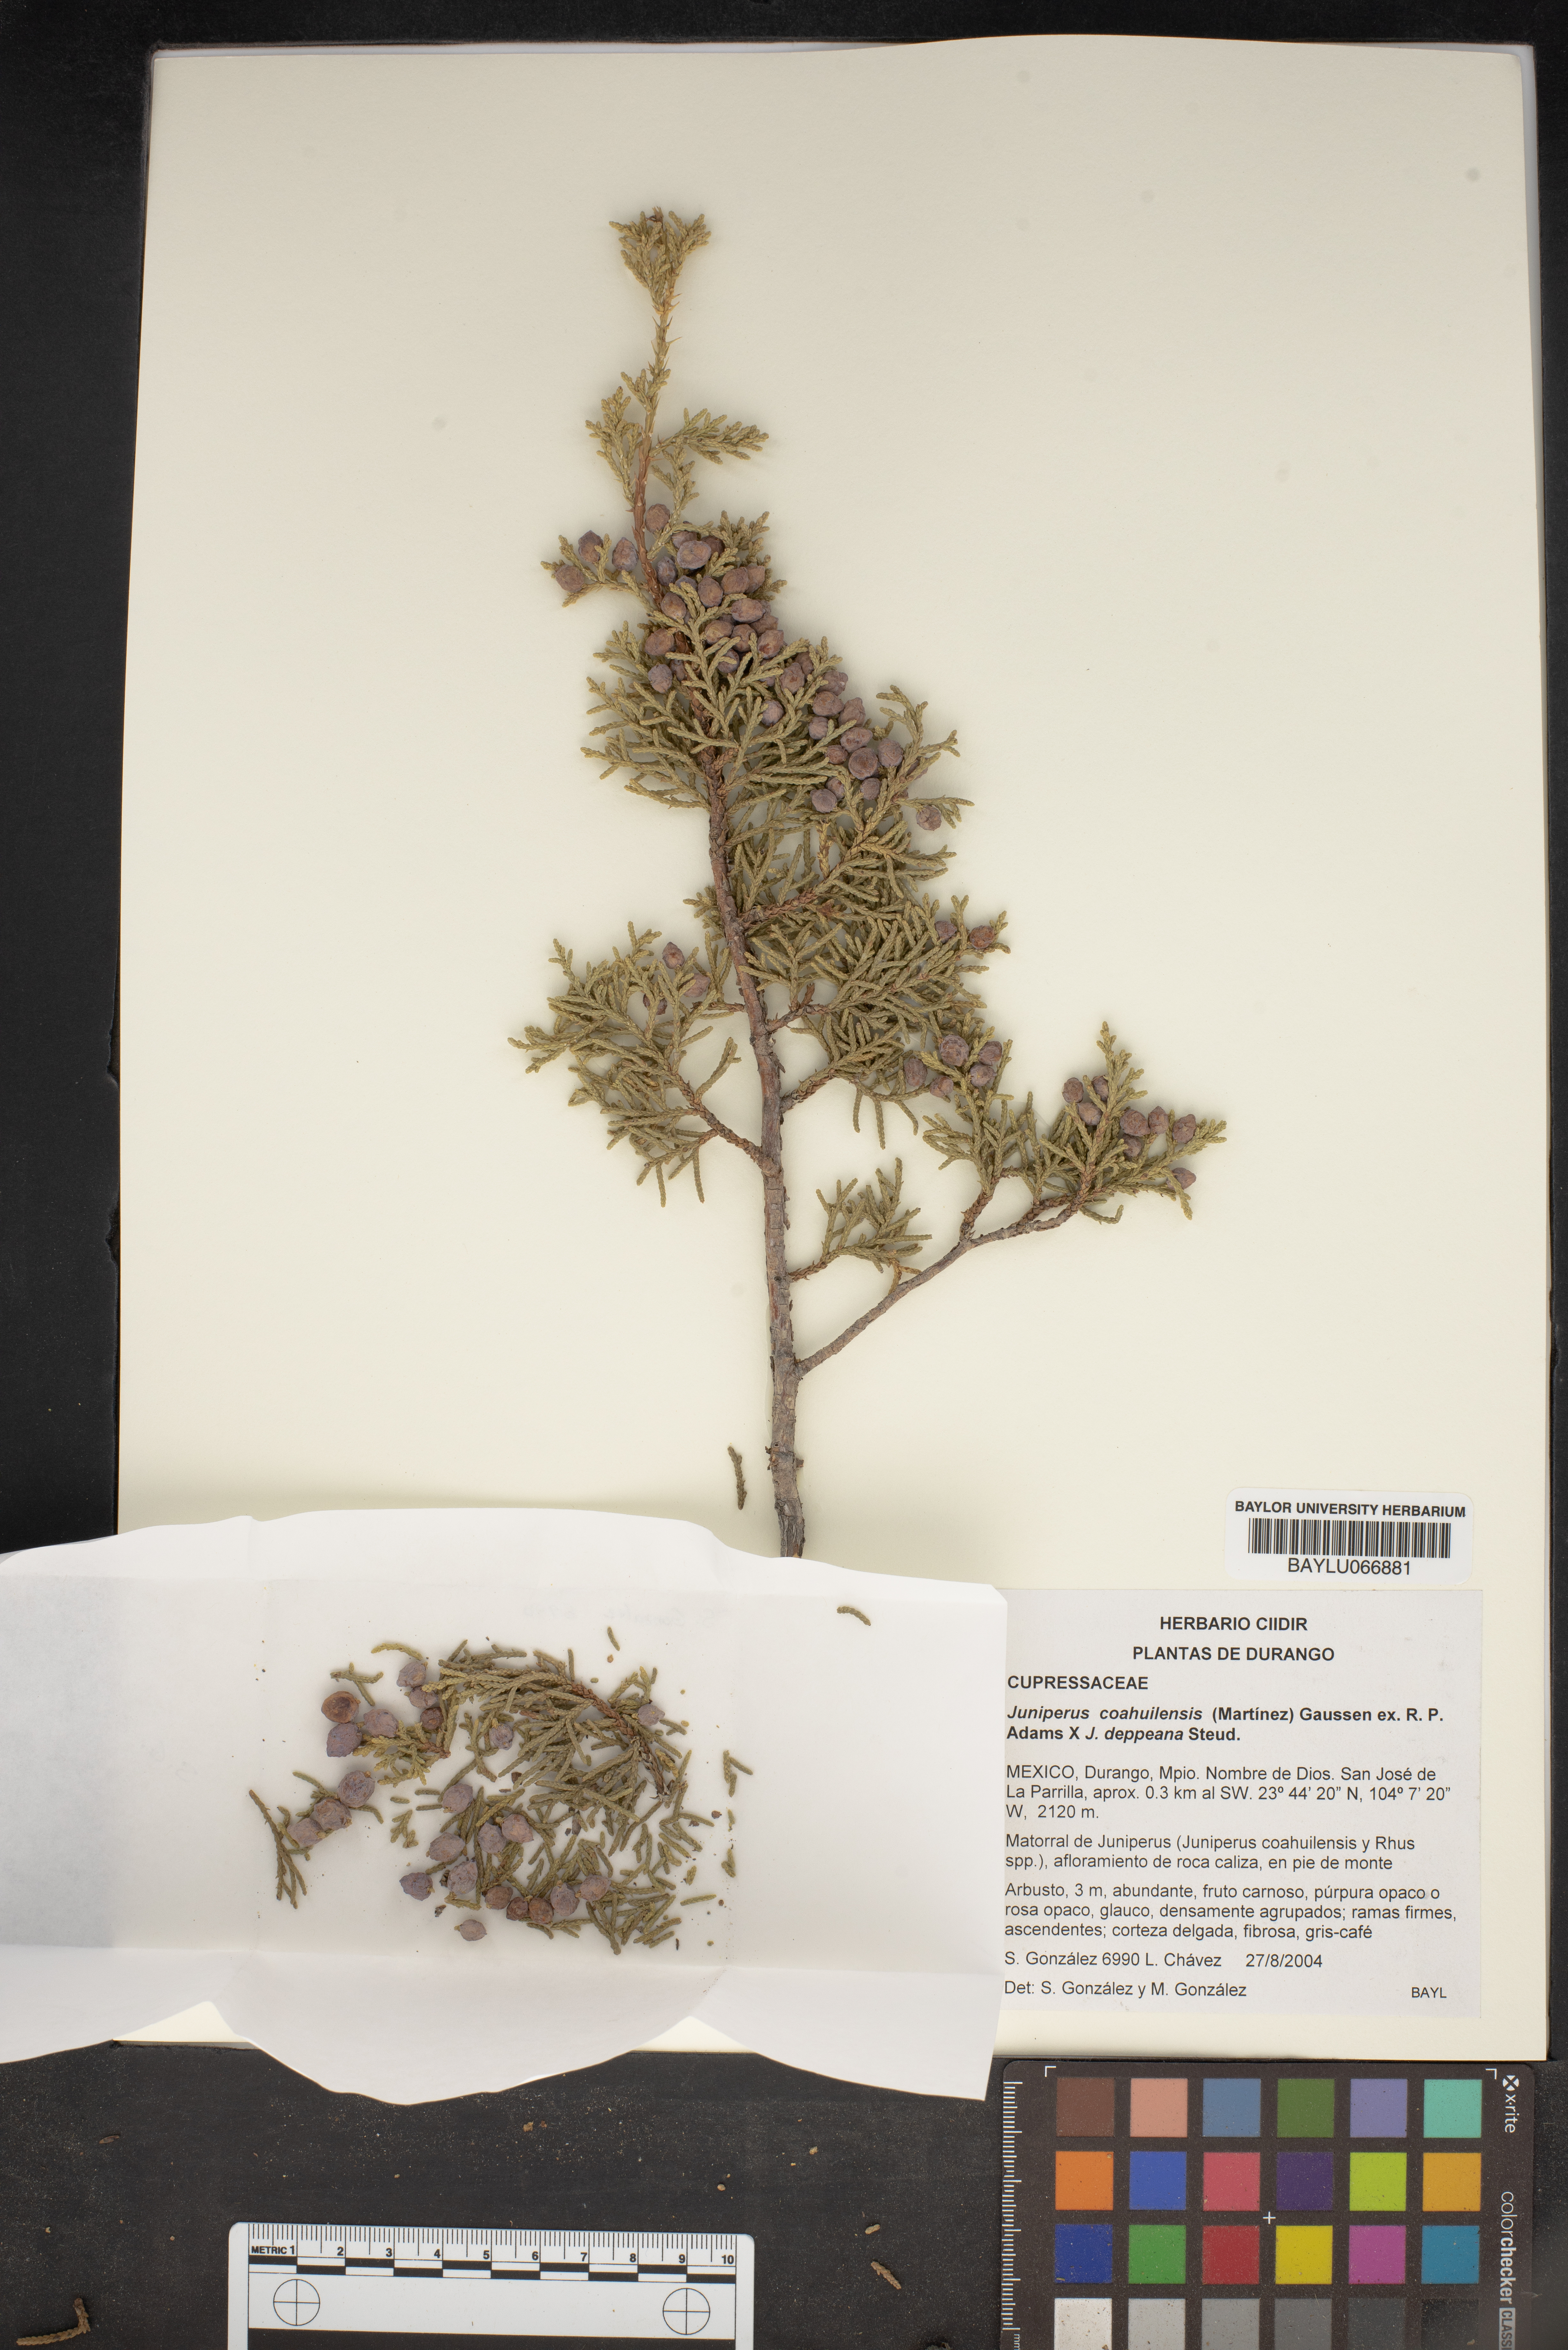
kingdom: Plantae
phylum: Tracheophyta
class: Pinopsida
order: Pinales
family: Cupressaceae
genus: Juniperus
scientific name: Juniperus coahuilensis
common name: Roseberry
